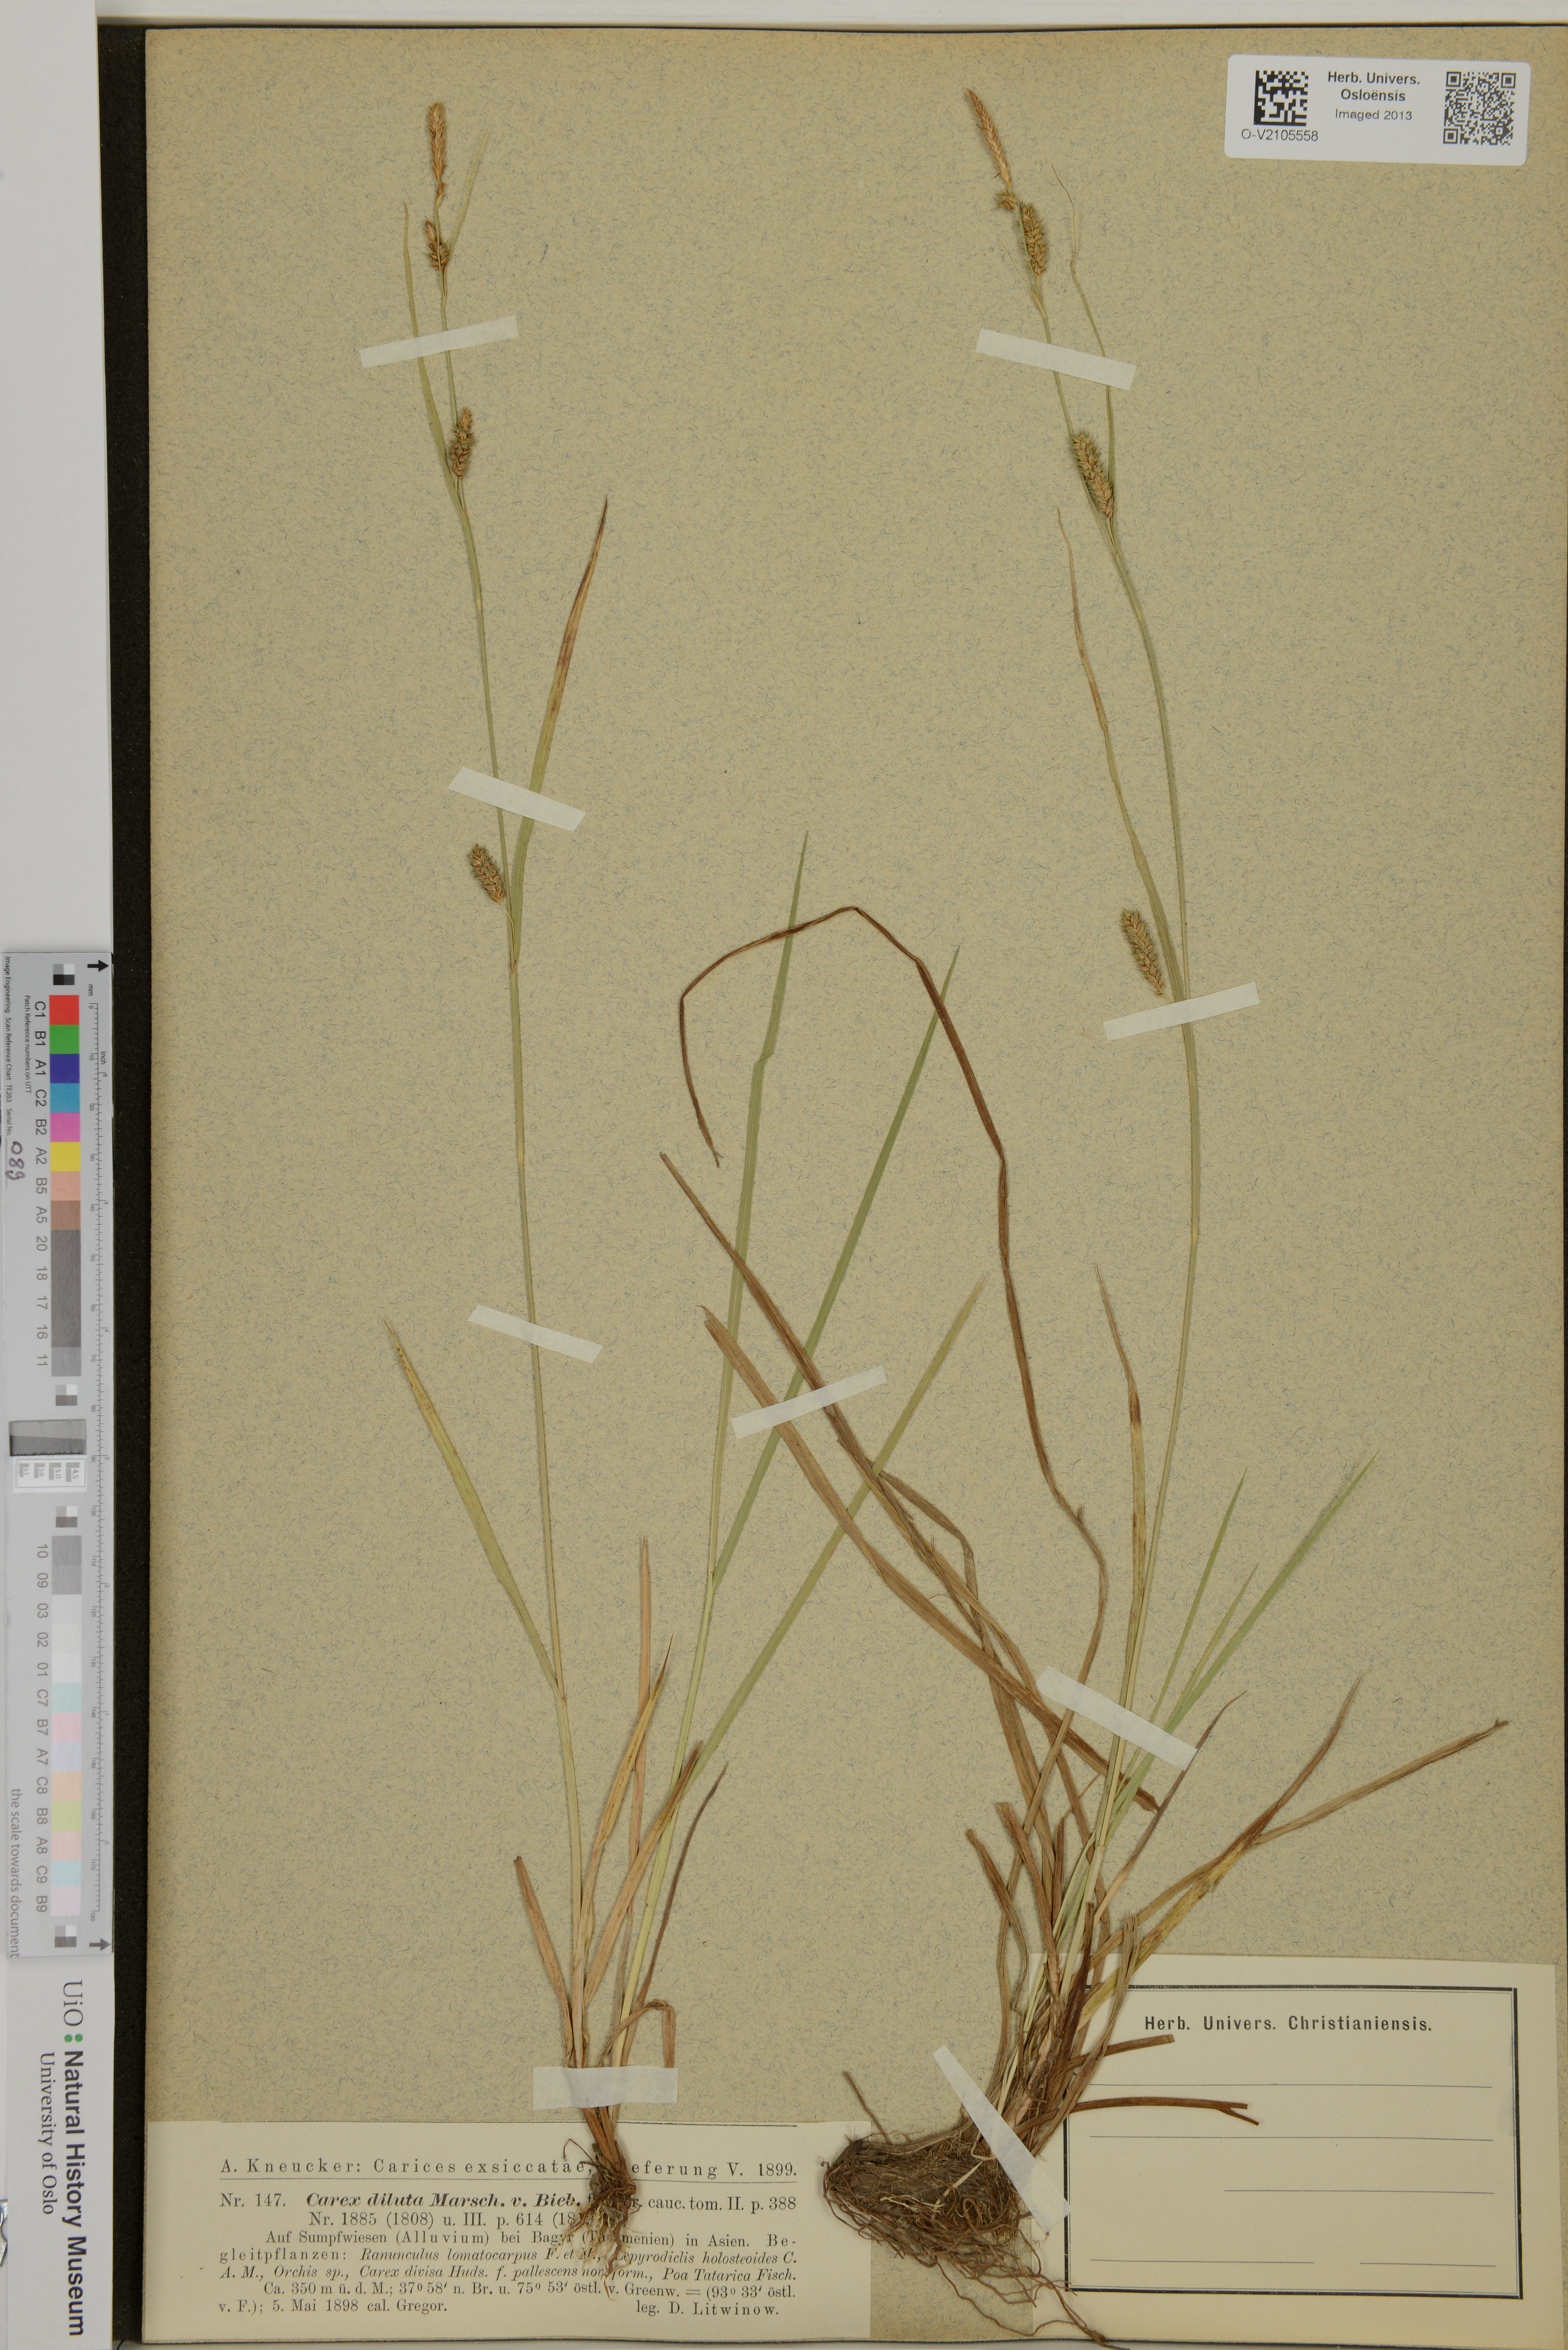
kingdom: Plantae
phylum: Tracheophyta
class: Liliopsida
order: Poales
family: Cyperaceae
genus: Carex
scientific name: Carex diluta
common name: Sedge
